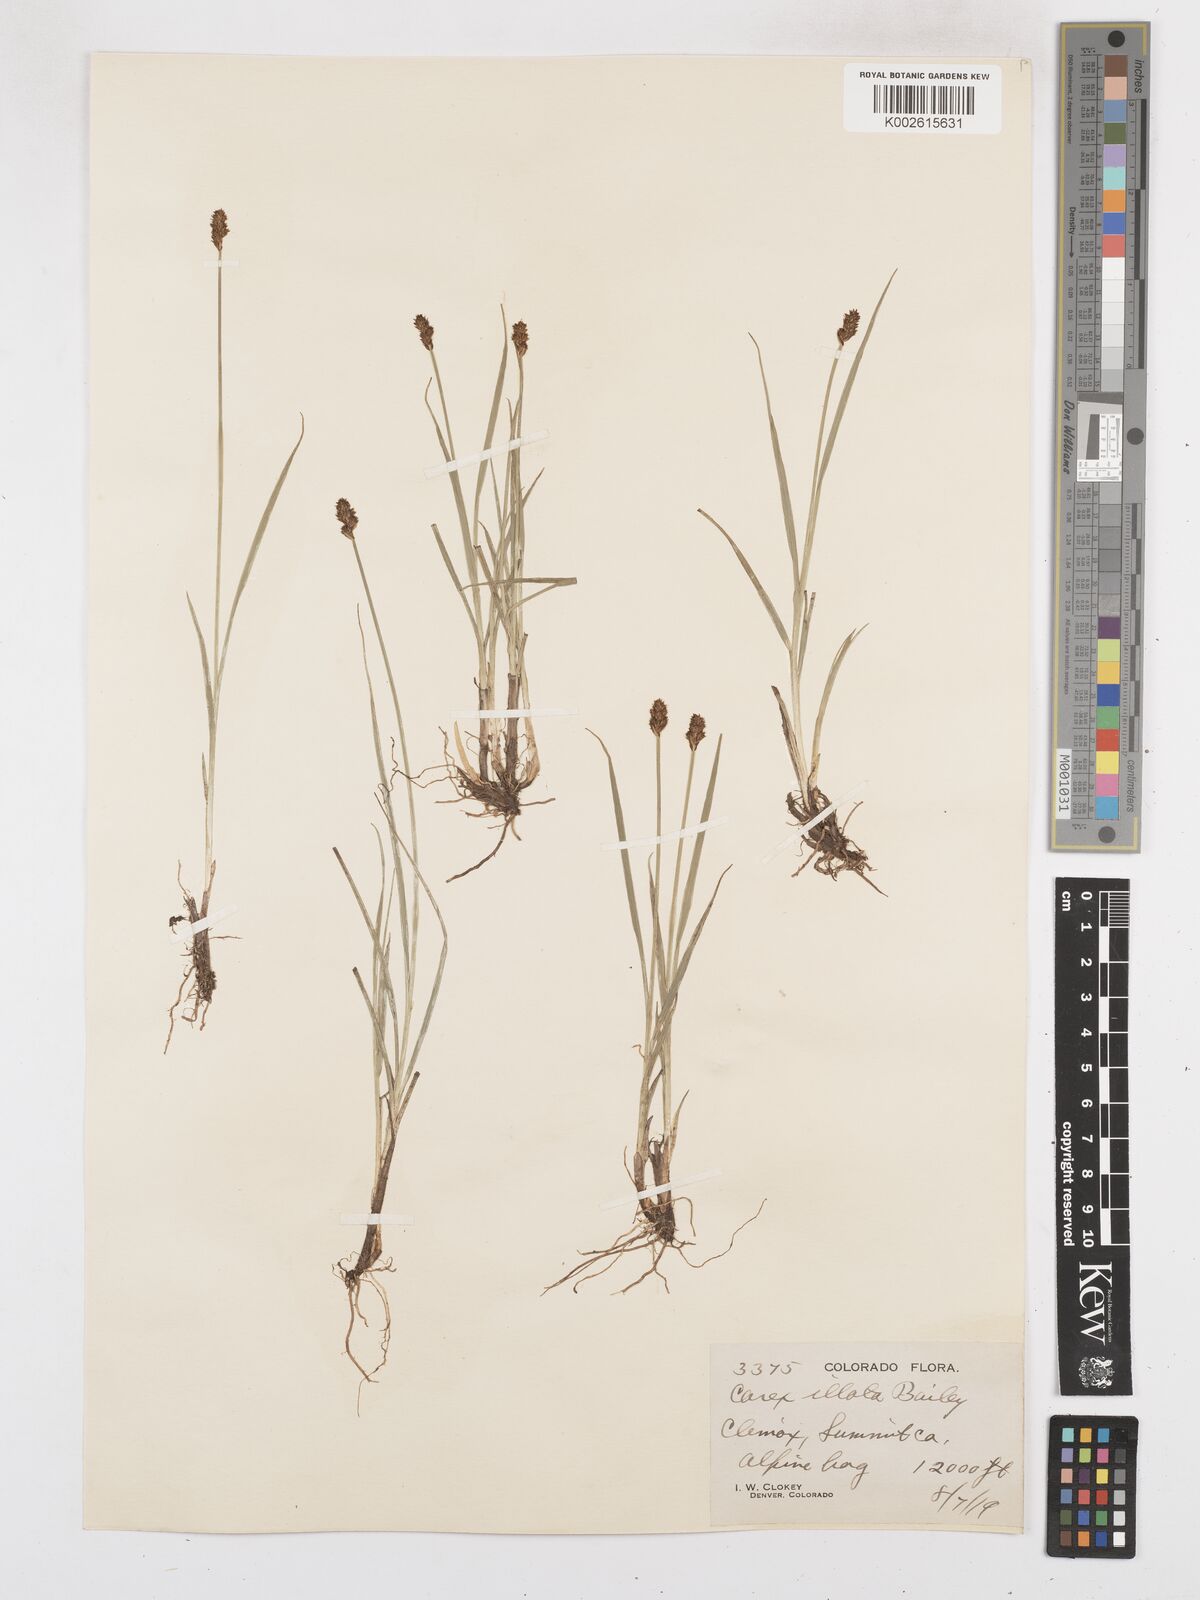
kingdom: Plantae
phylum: Tracheophyta
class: Liliopsida
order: Poales
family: Cyperaceae
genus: Carex
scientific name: Carex illota
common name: Sheep sedge
